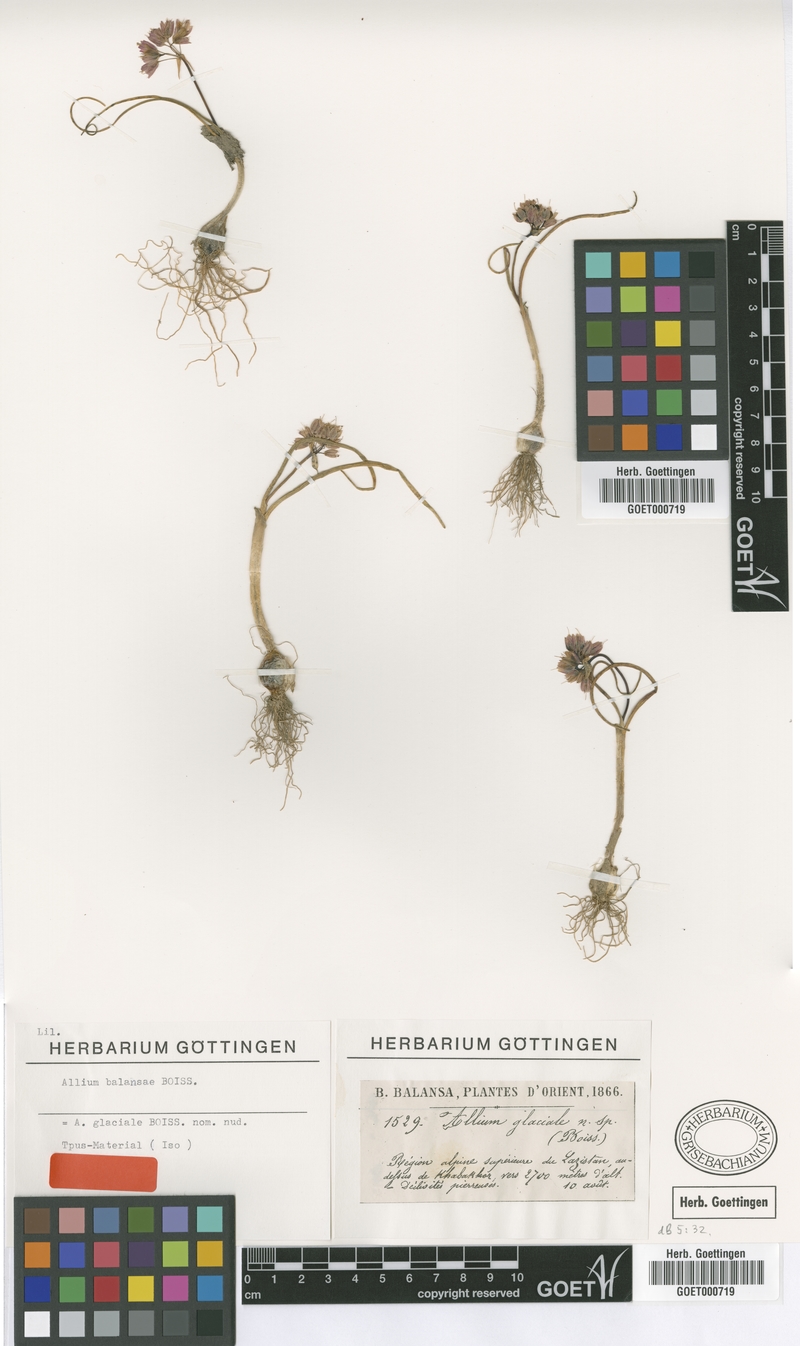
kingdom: Plantae
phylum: Tracheophyta
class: Liliopsida
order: Asparagales
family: Amaryllidaceae
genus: Allium
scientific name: Allium balansae
